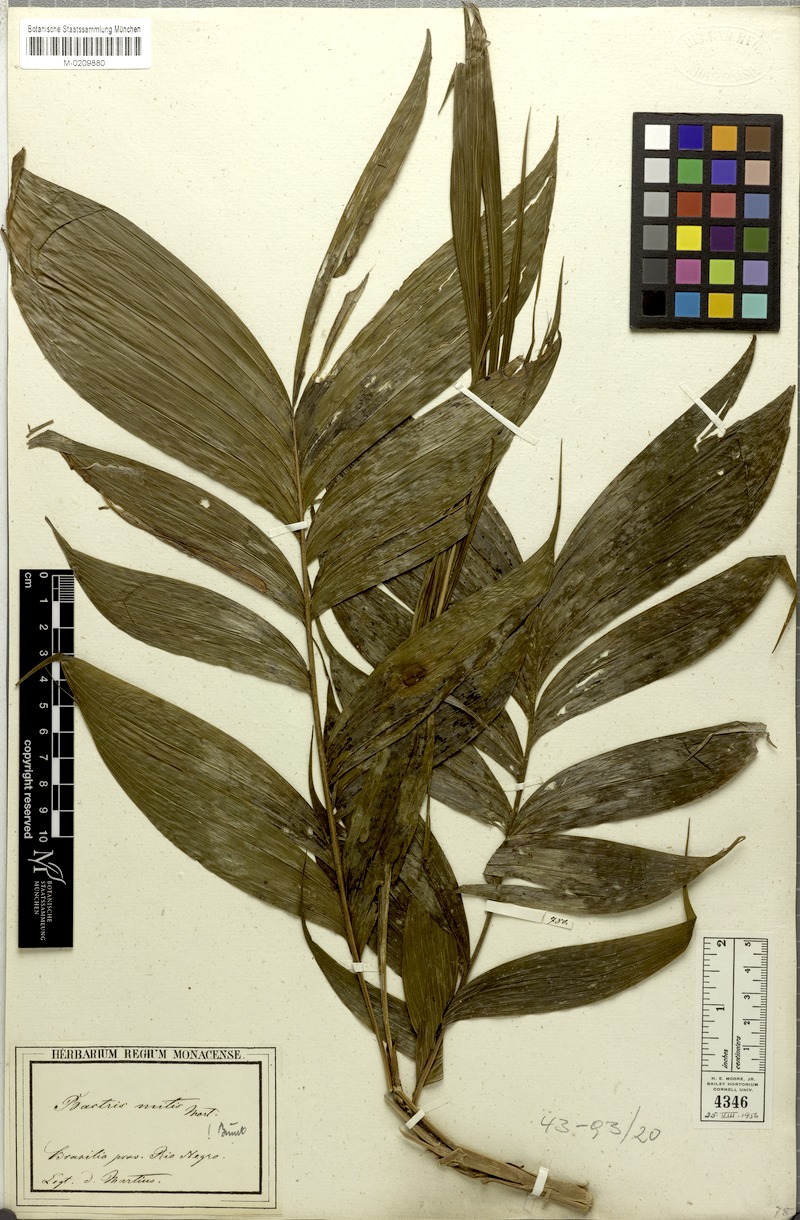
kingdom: Plantae
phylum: Tracheophyta
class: Liliopsida
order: Arecales
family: Arecaceae
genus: Bactris
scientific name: Bactris cuspidata
